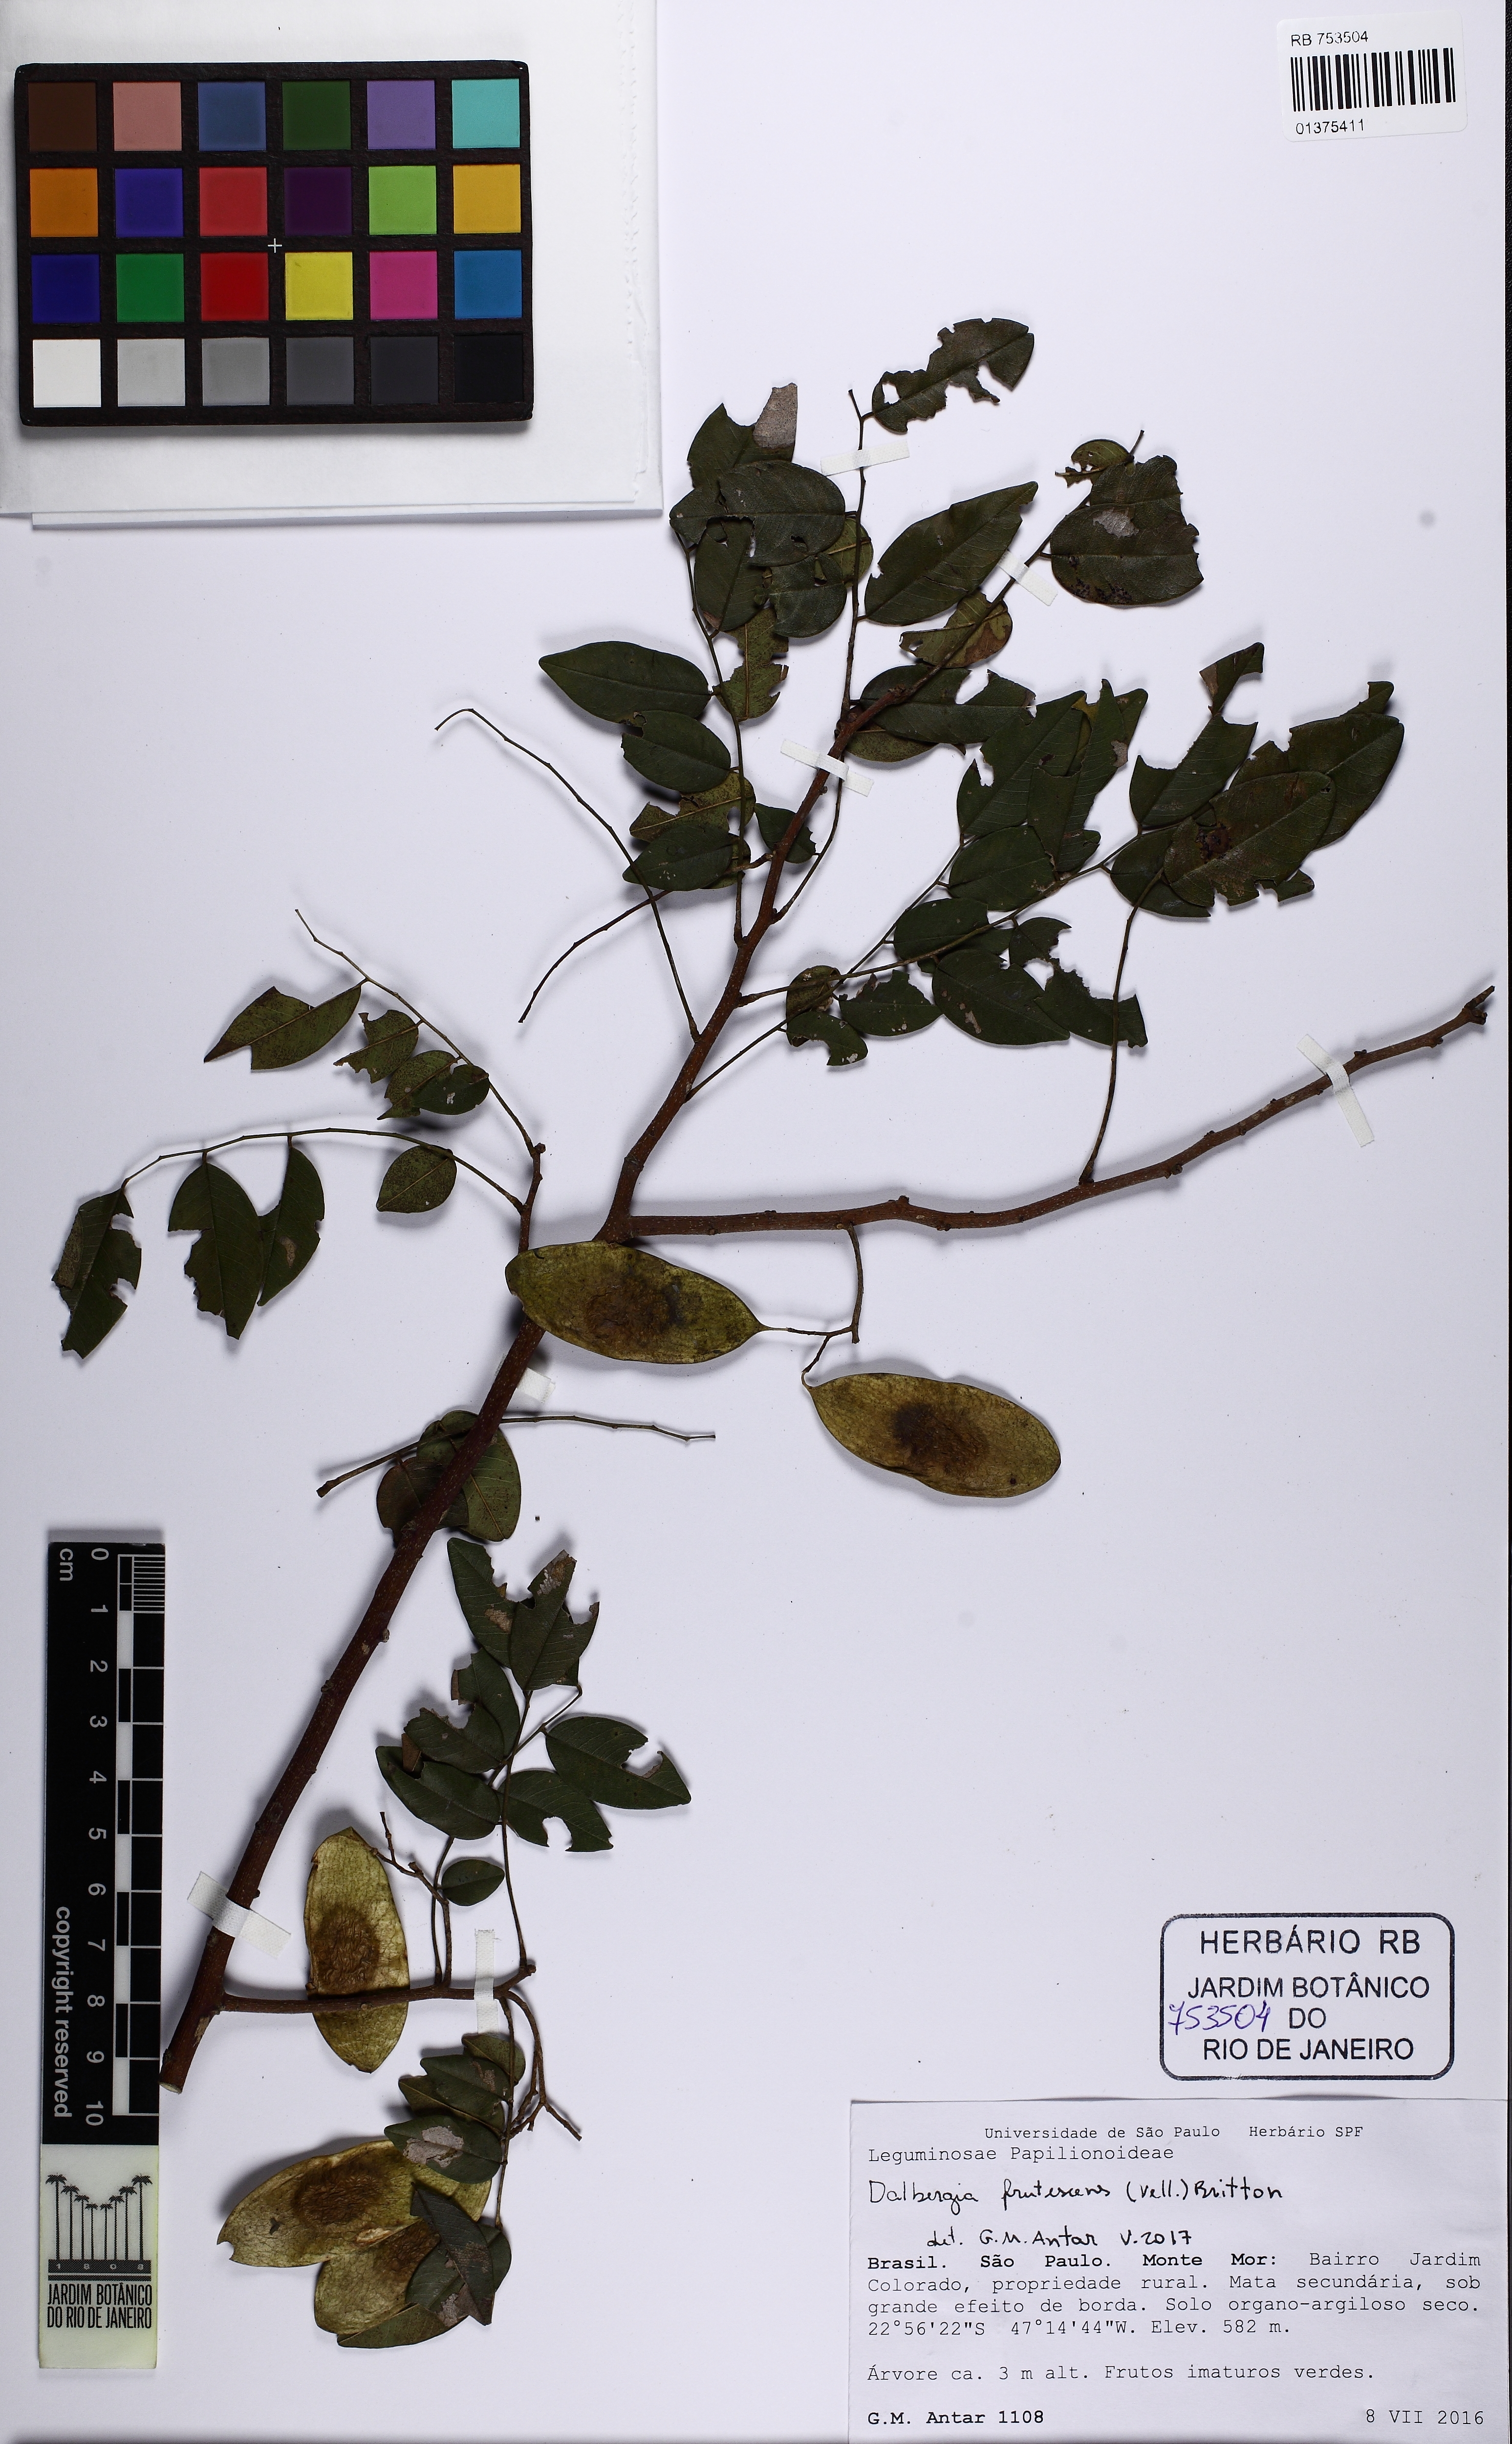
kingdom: Plantae
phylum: Tracheophyta
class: Magnoliopsida
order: Fabales
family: Fabaceae
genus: Dalbergia
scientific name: Dalbergia frutescens
